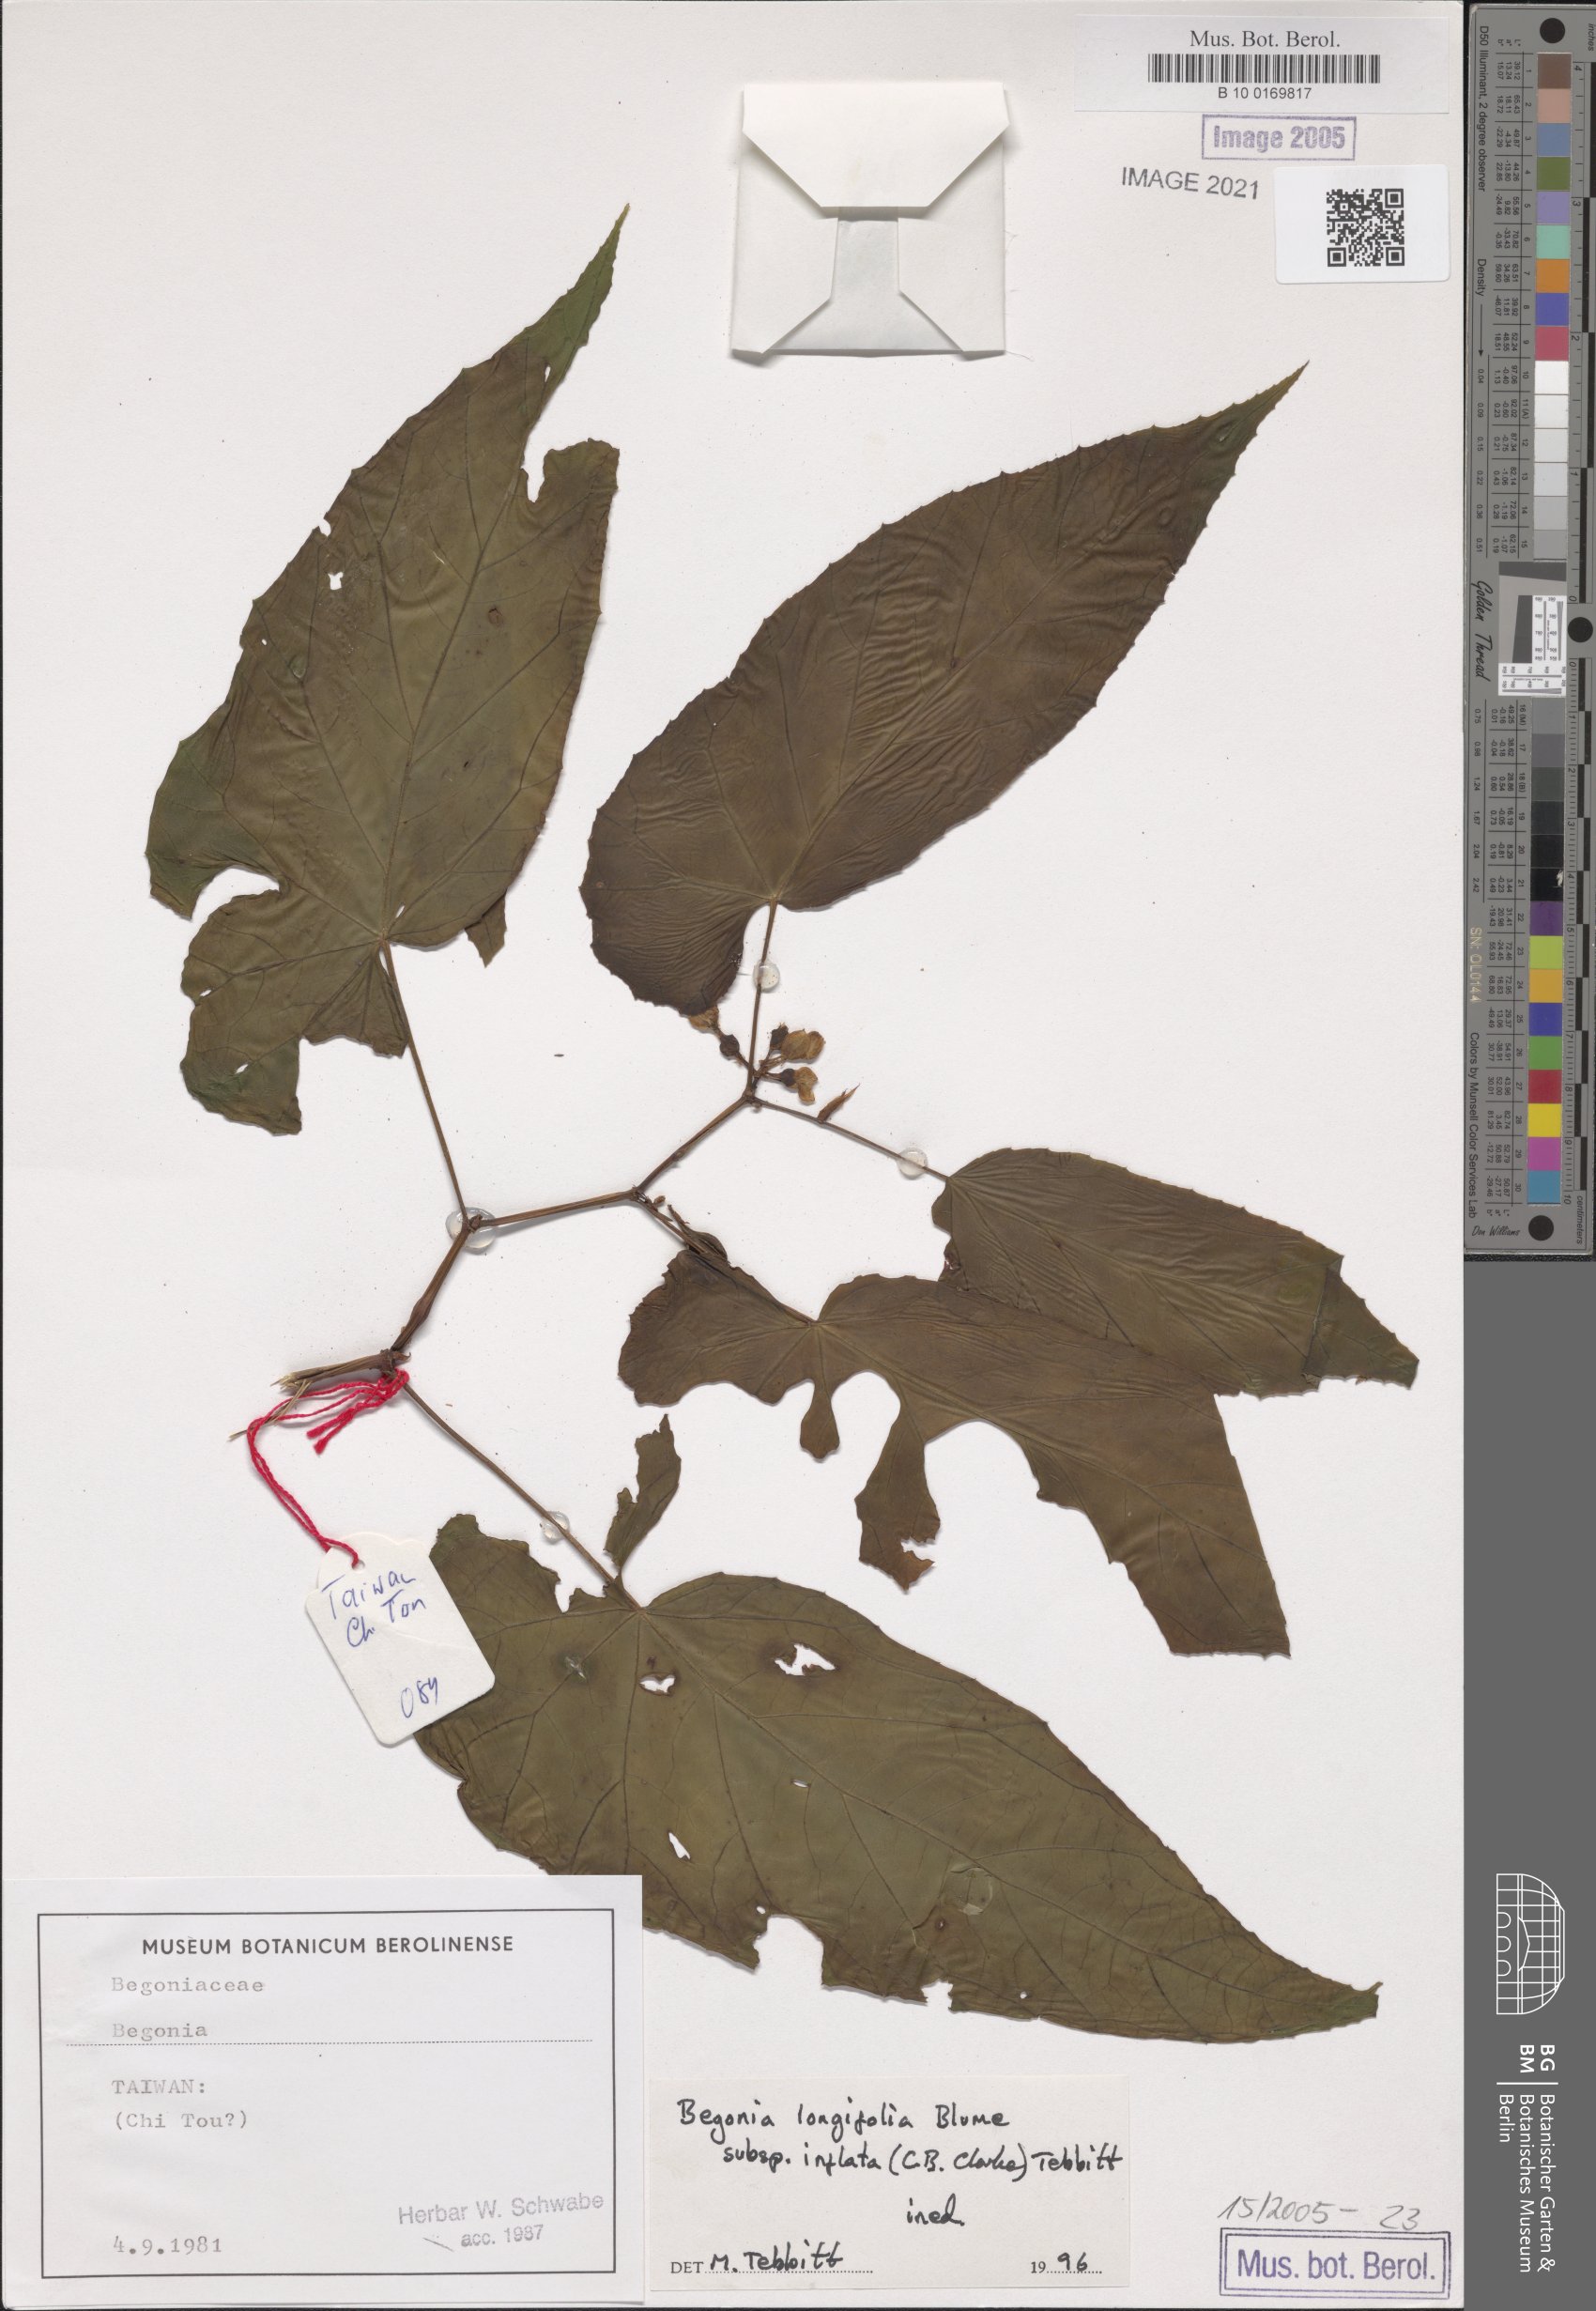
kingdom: Plantae
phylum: Tracheophyta
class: Magnoliopsida
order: Cucurbitales
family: Begoniaceae
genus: Begonia
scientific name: Begonia longifolia
